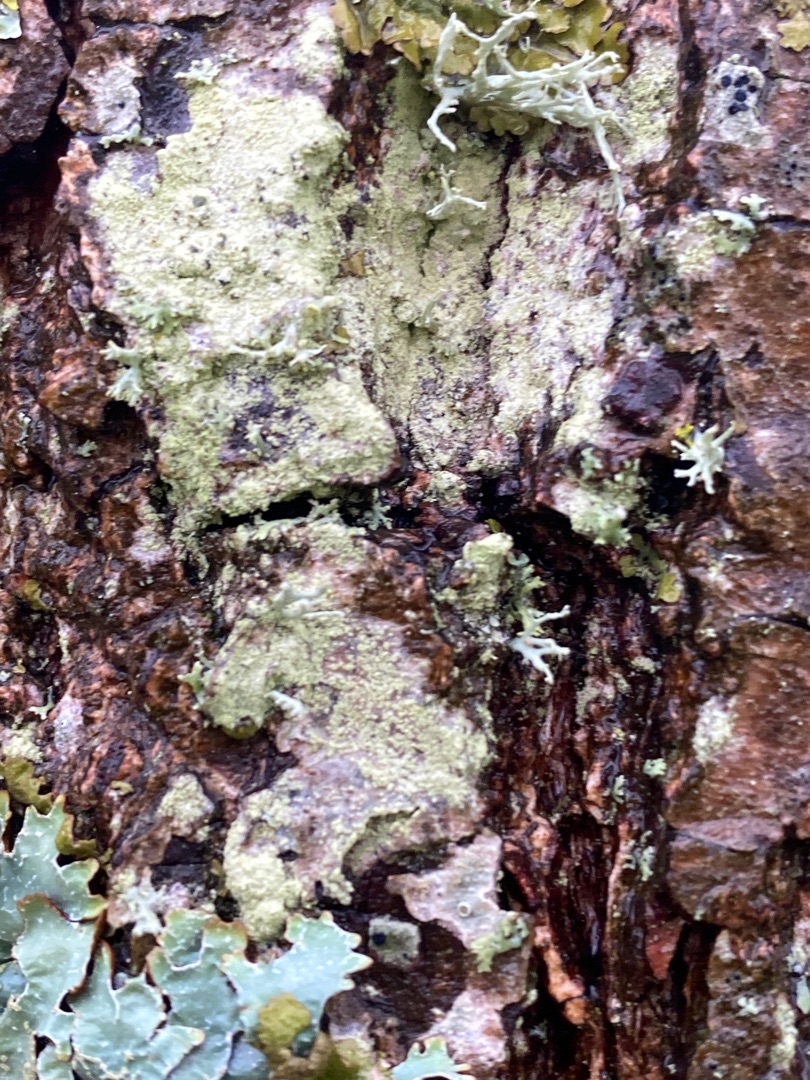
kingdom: Fungi
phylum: Ascomycota
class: Lecanoromycetes
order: Lecanorales
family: Parmeliaceae
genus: Parmelia
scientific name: Parmelia sulcata
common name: Rynket skållav
